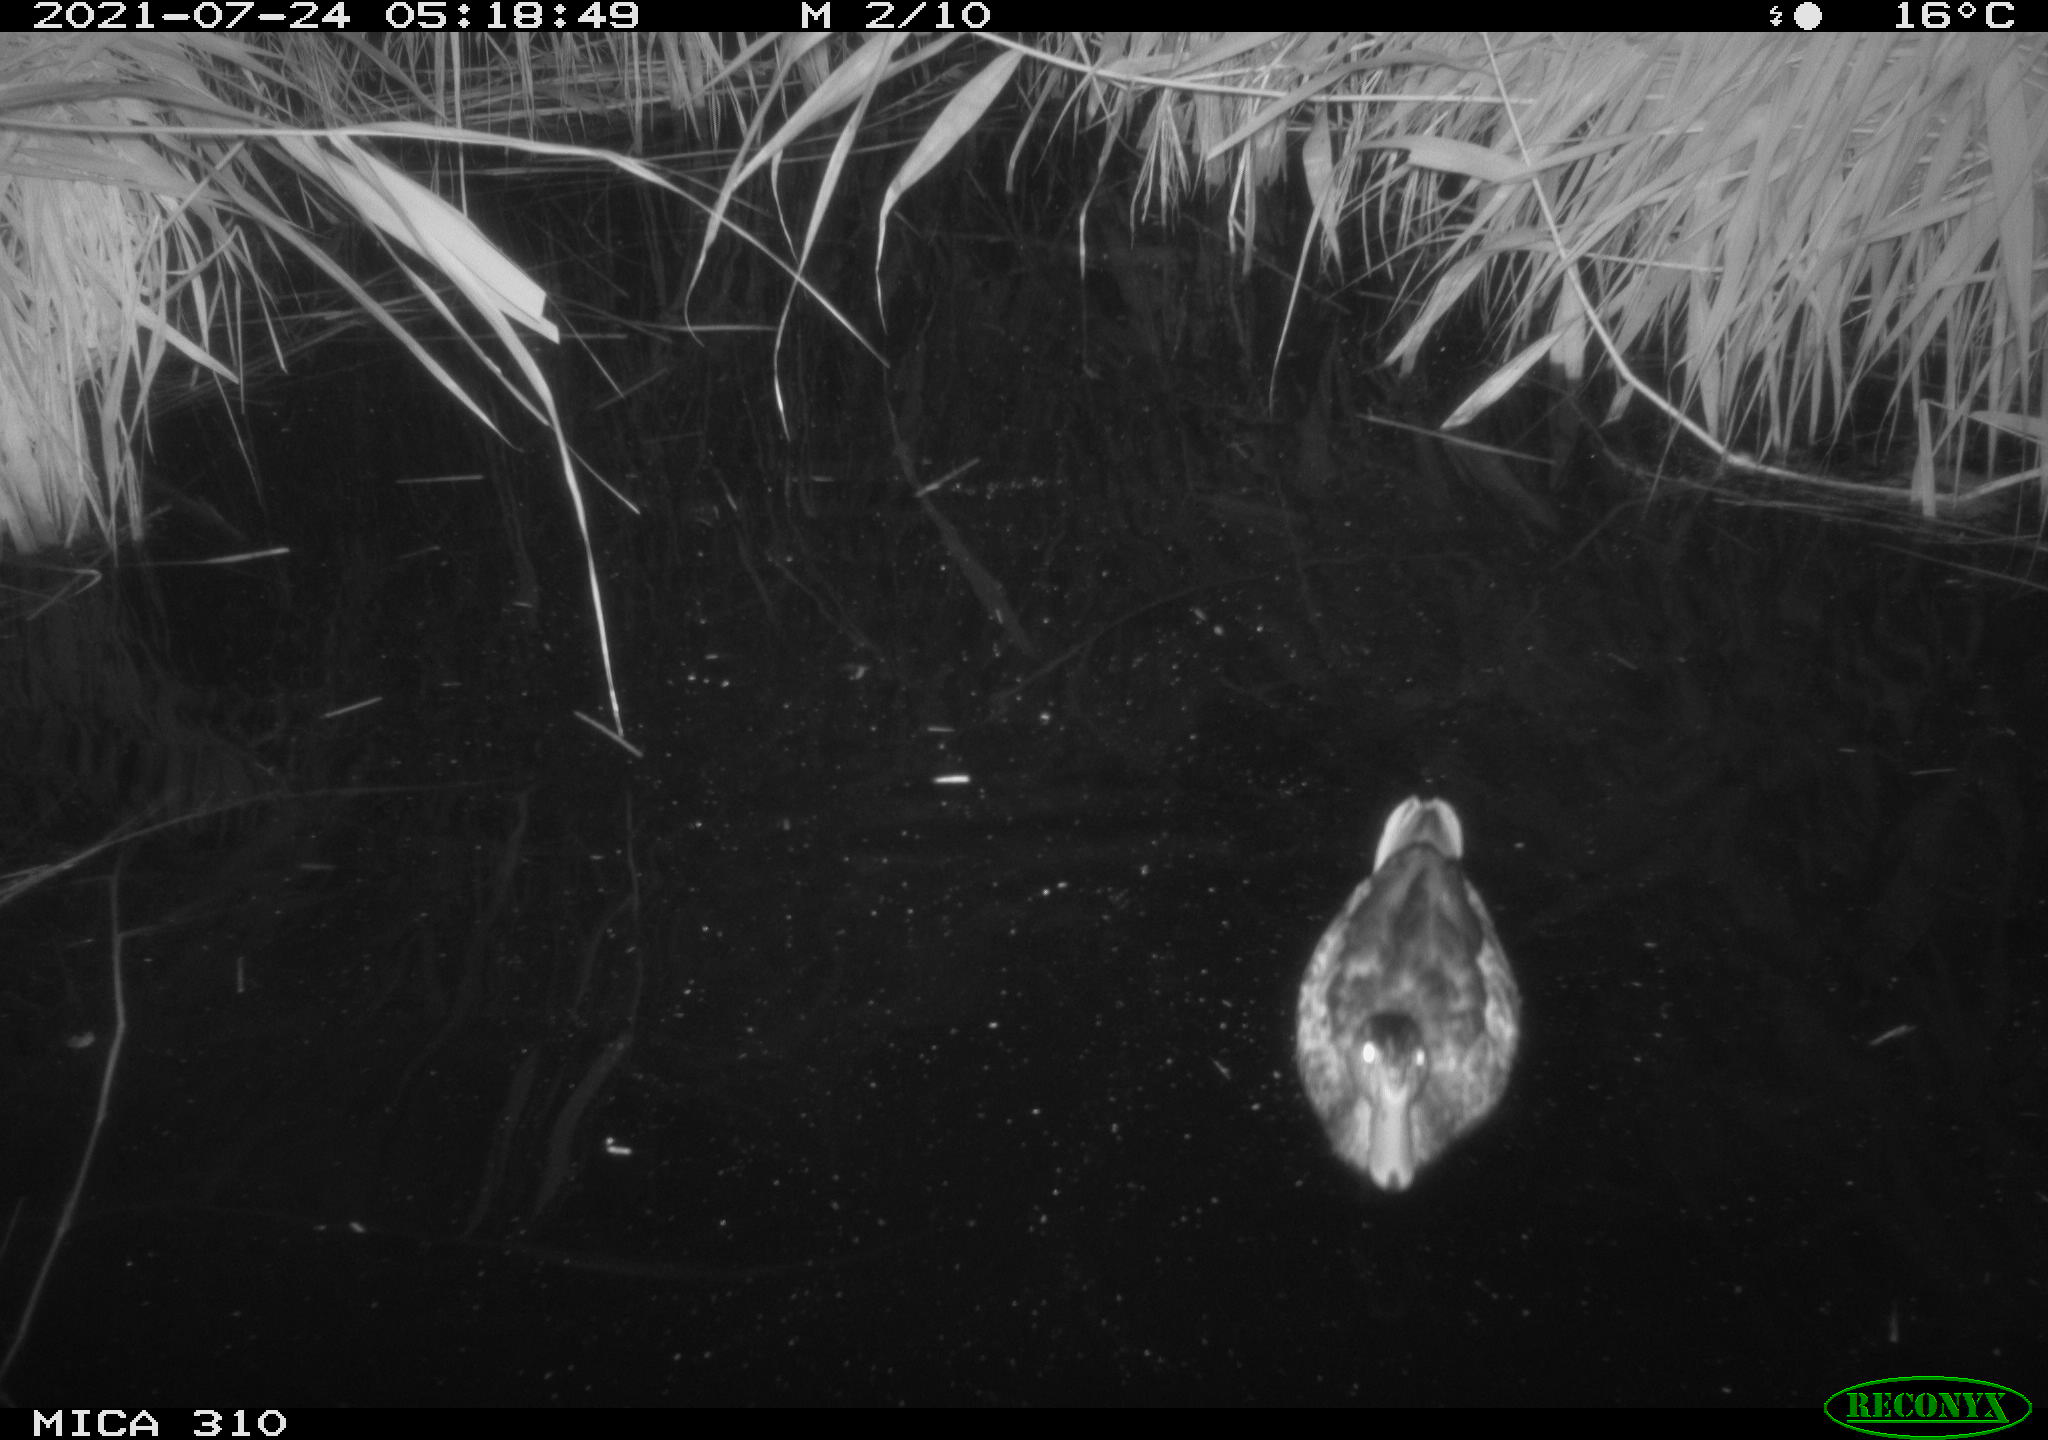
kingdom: Animalia
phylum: Chordata
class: Aves
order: Gruiformes
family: Rallidae
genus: Gallinula
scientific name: Gallinula chloropus
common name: Common moorhen
